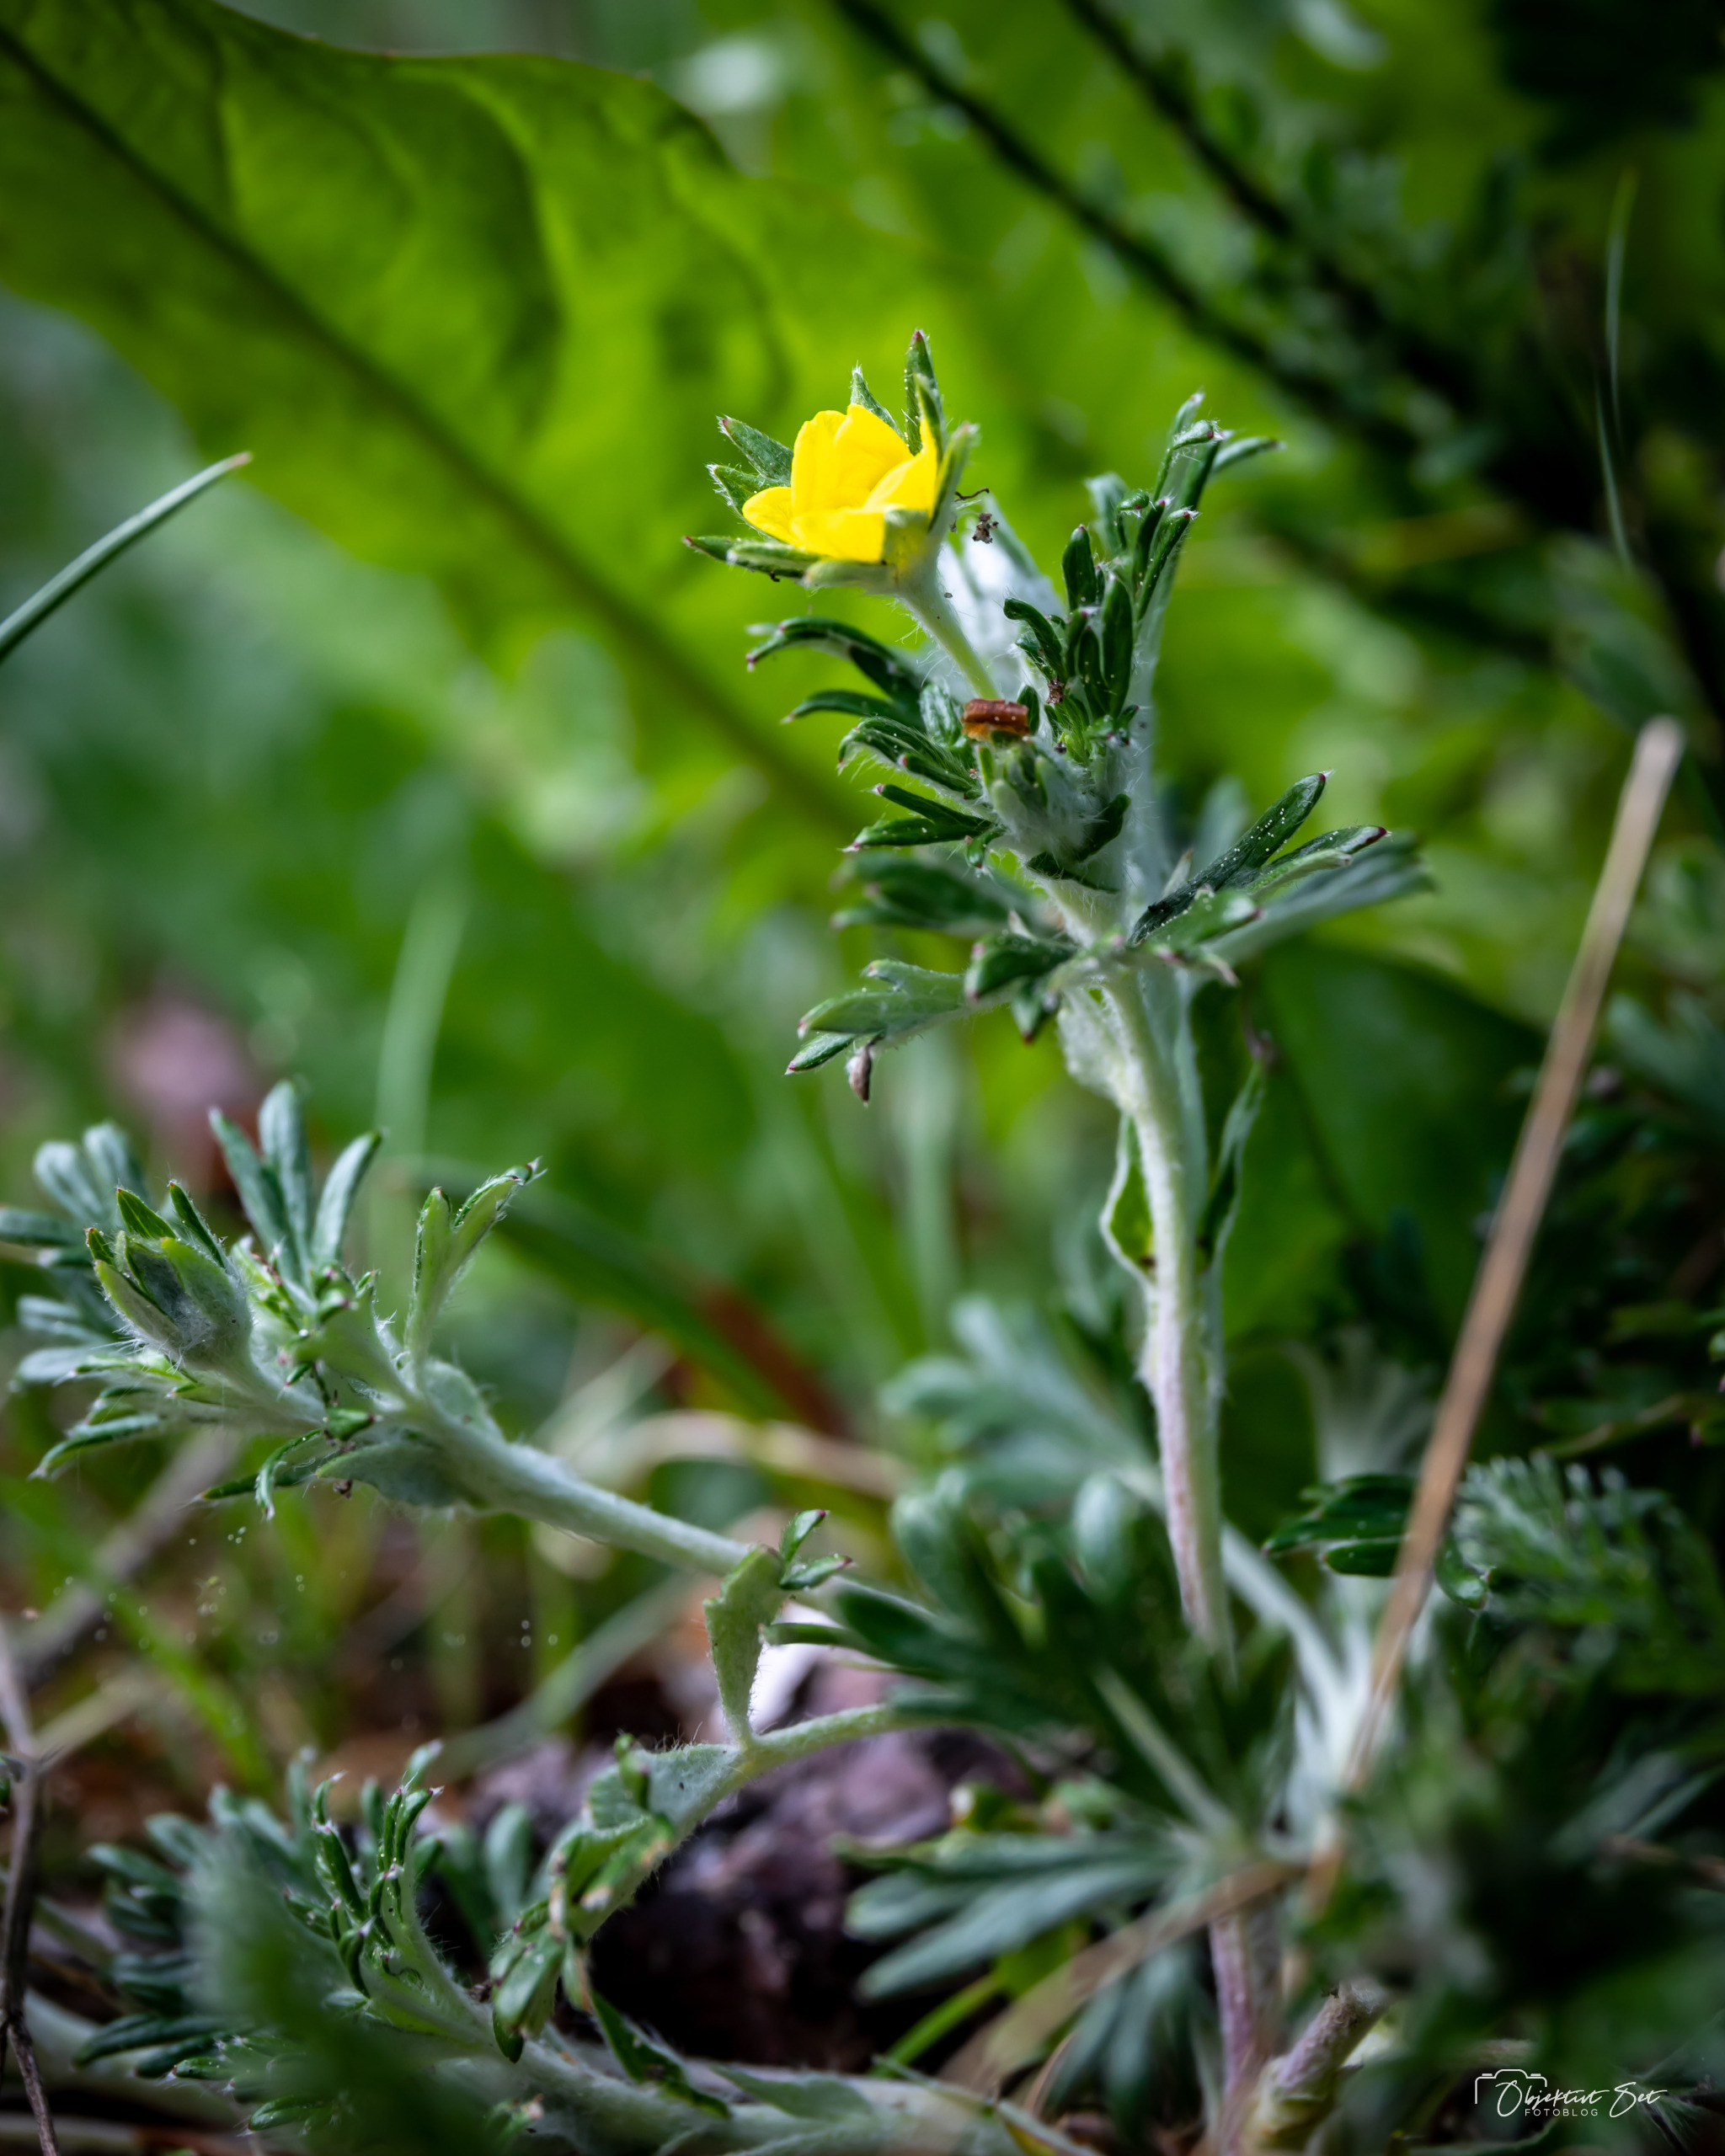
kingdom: Plantae
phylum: Tracheophyta
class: Magnoliopsida
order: Rosales
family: Rosaceae
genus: Potentilla
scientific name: Potentilla argentea
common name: Sølv-potentil
